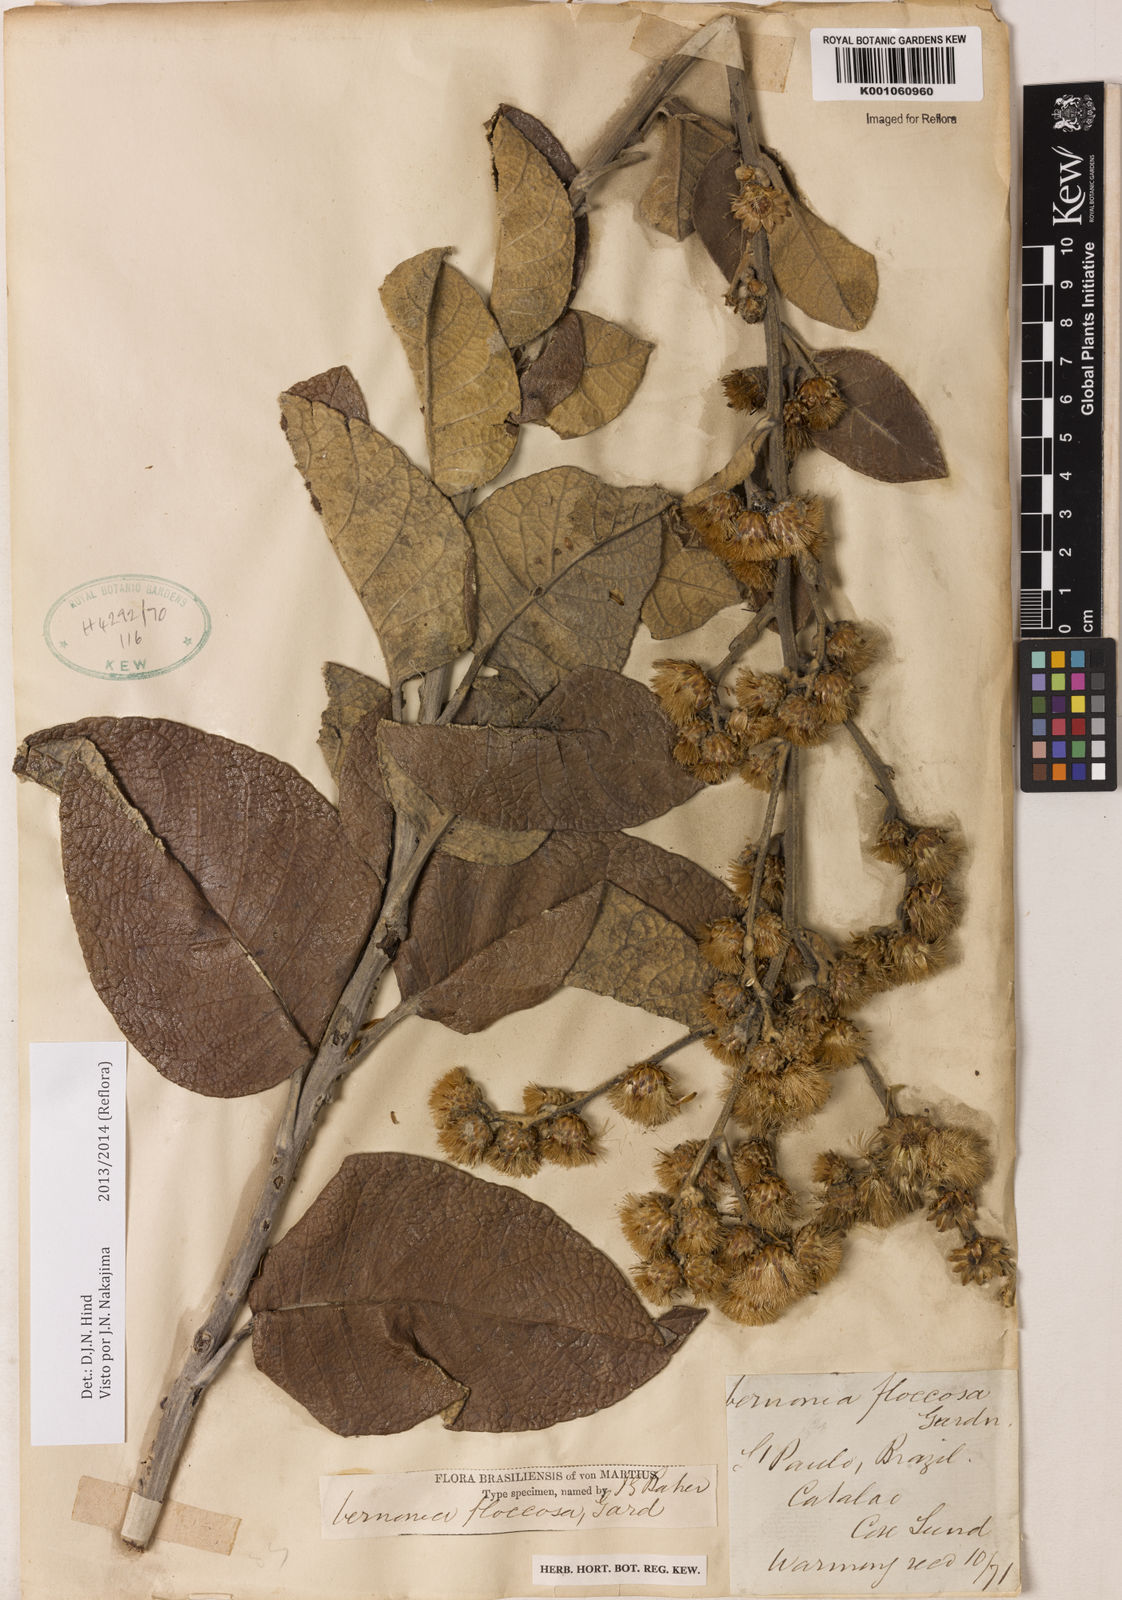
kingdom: Plantae
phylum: Tracheophyta
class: Magnoliopsida
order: Asterales
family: Asteraceae
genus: Lessingianthus
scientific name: Lessingianthus floccosus
